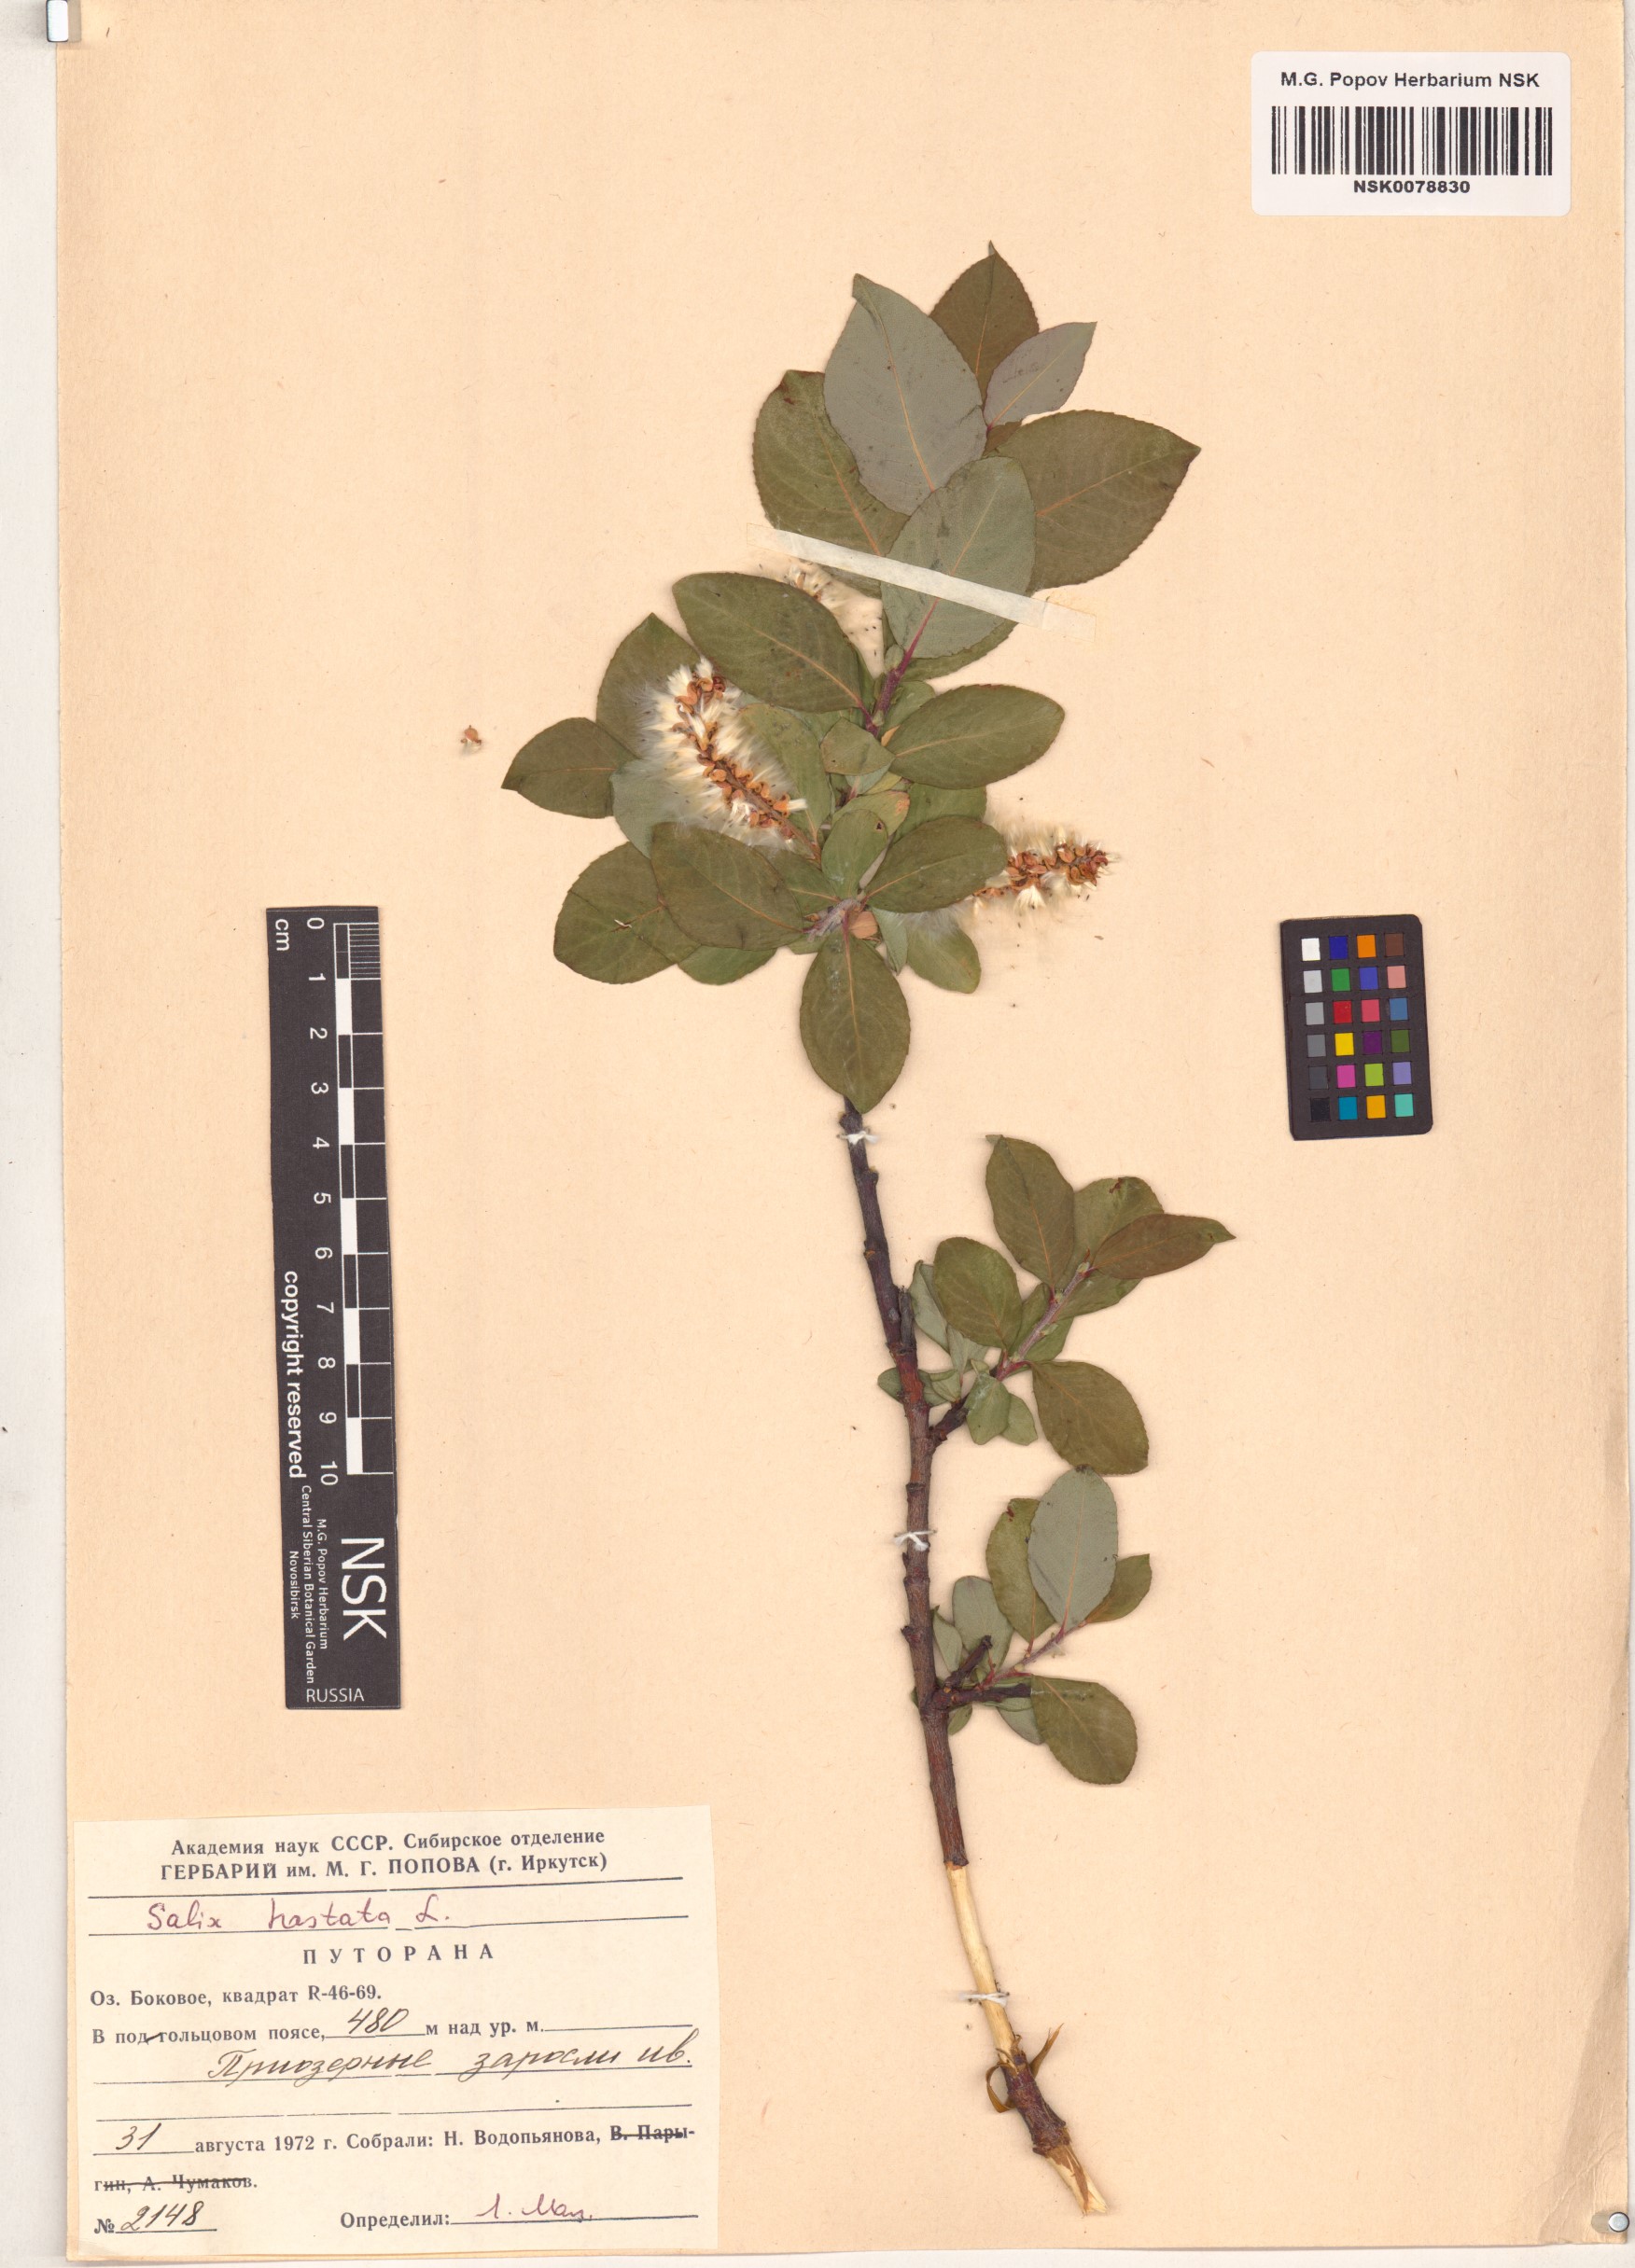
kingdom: Plantae
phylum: Tracheophyta
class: Magnoliopsida
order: Malpighiales
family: Salicaceae
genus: Salix
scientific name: Salix hastata
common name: Halberd willow
